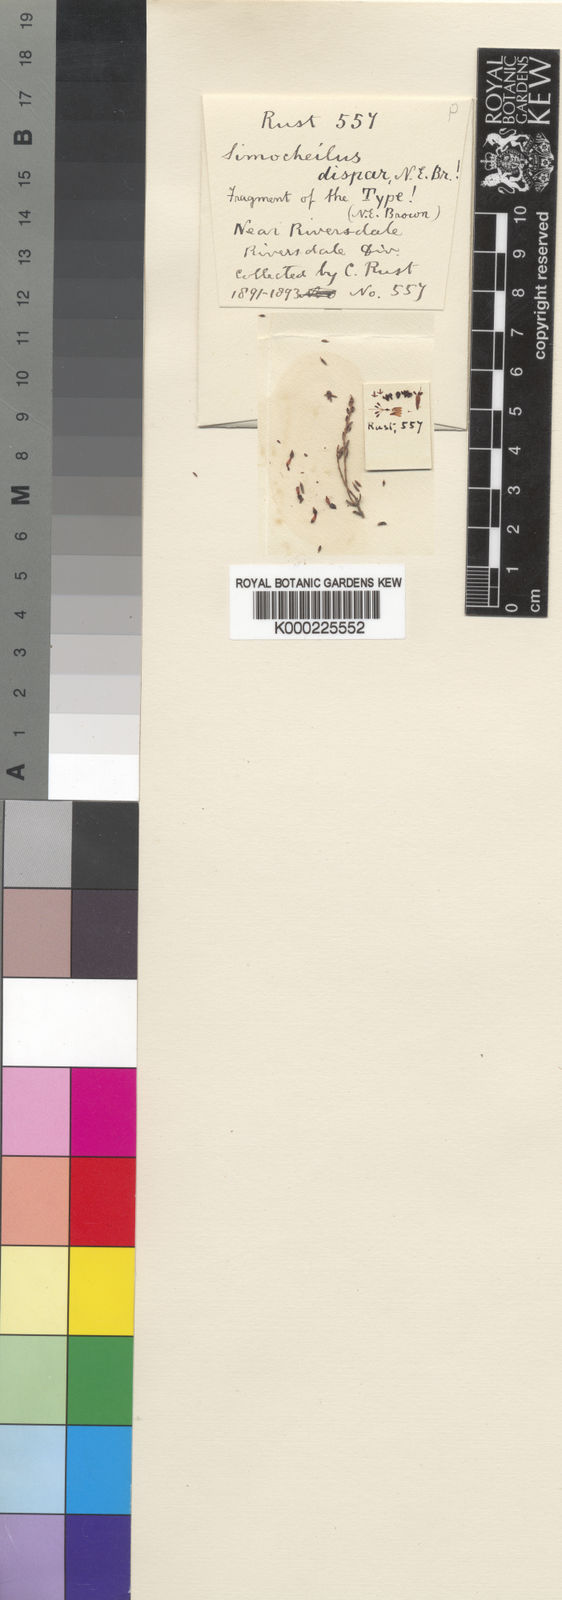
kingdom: Plantae
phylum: Tracheophyta
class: Magnoliopsida
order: Ericales
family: Ericaceae
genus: Erica
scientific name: Erica dispar
